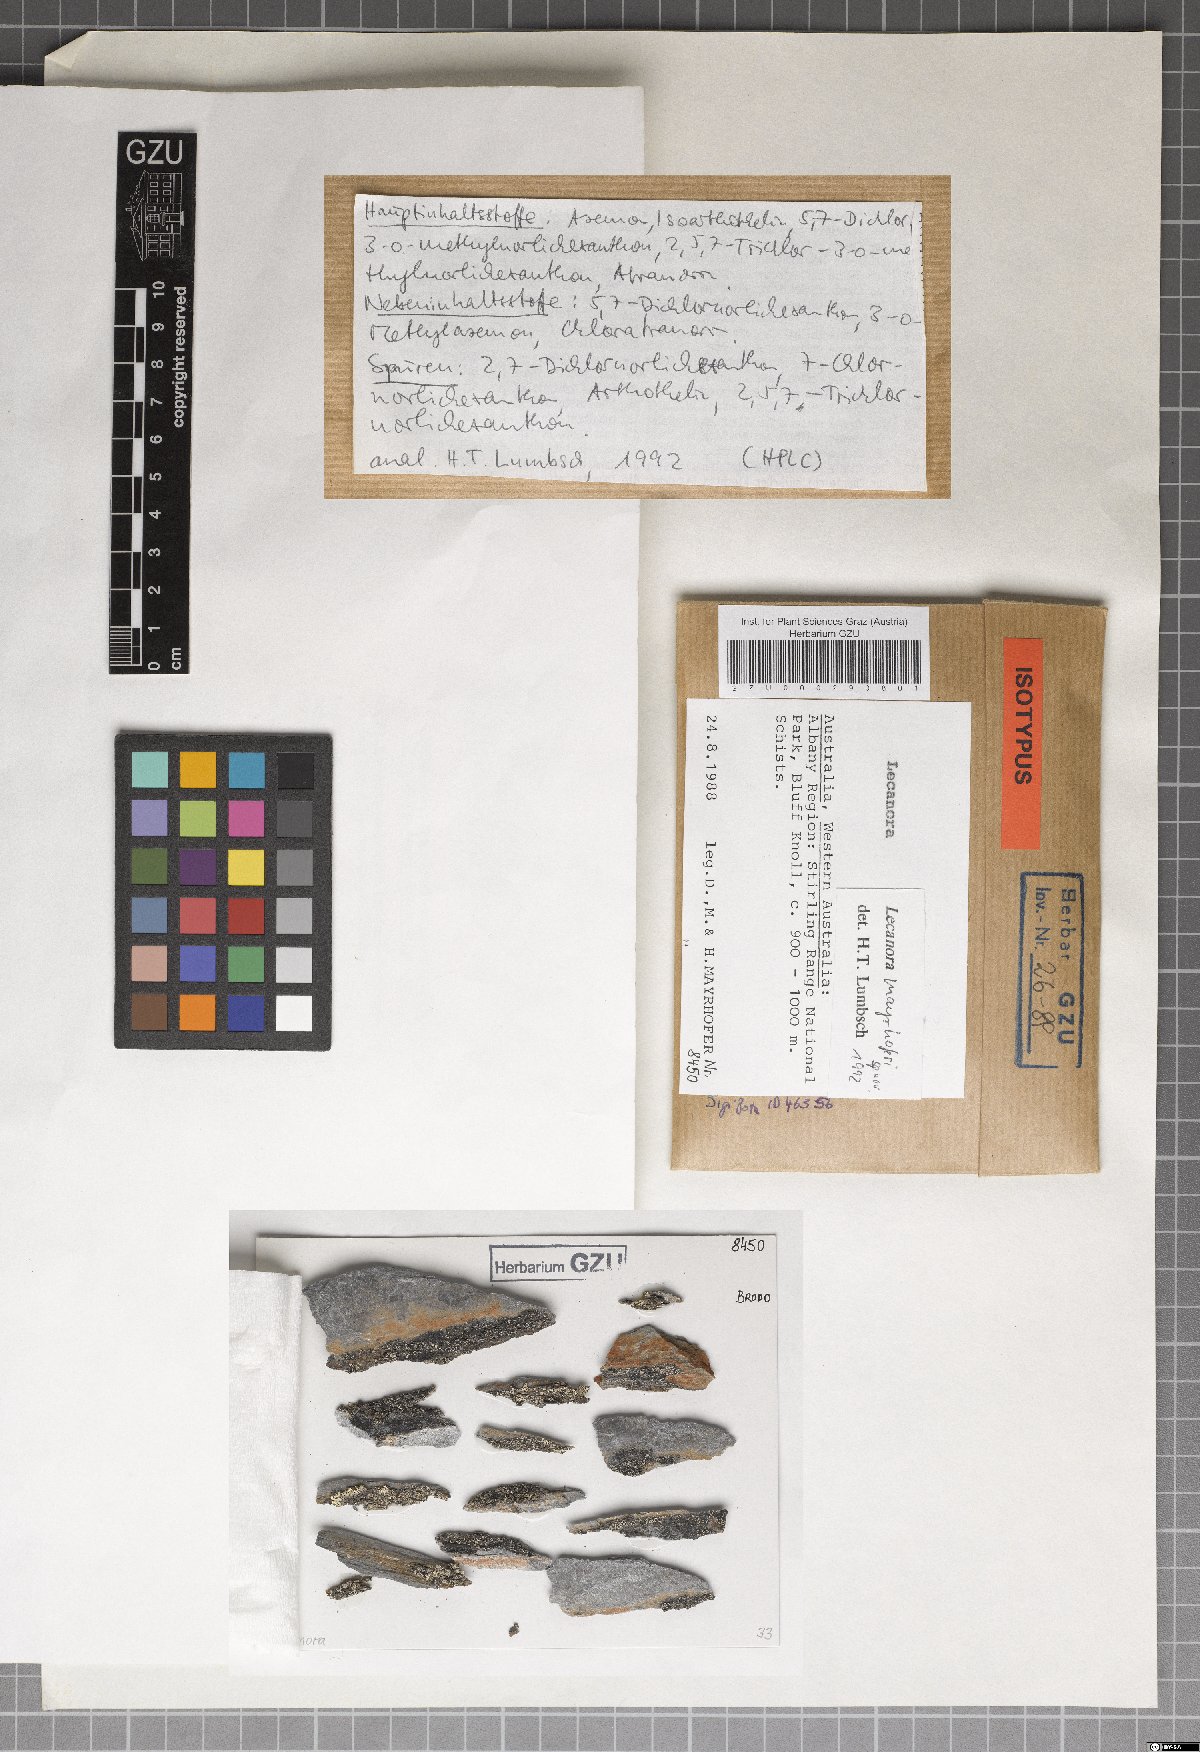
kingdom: Fungi
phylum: Ascomycota
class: Lecanoromycetes
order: Lecanorales
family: Lecanoraceae
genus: Lecanora
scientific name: Lecanora mayrhoferi
